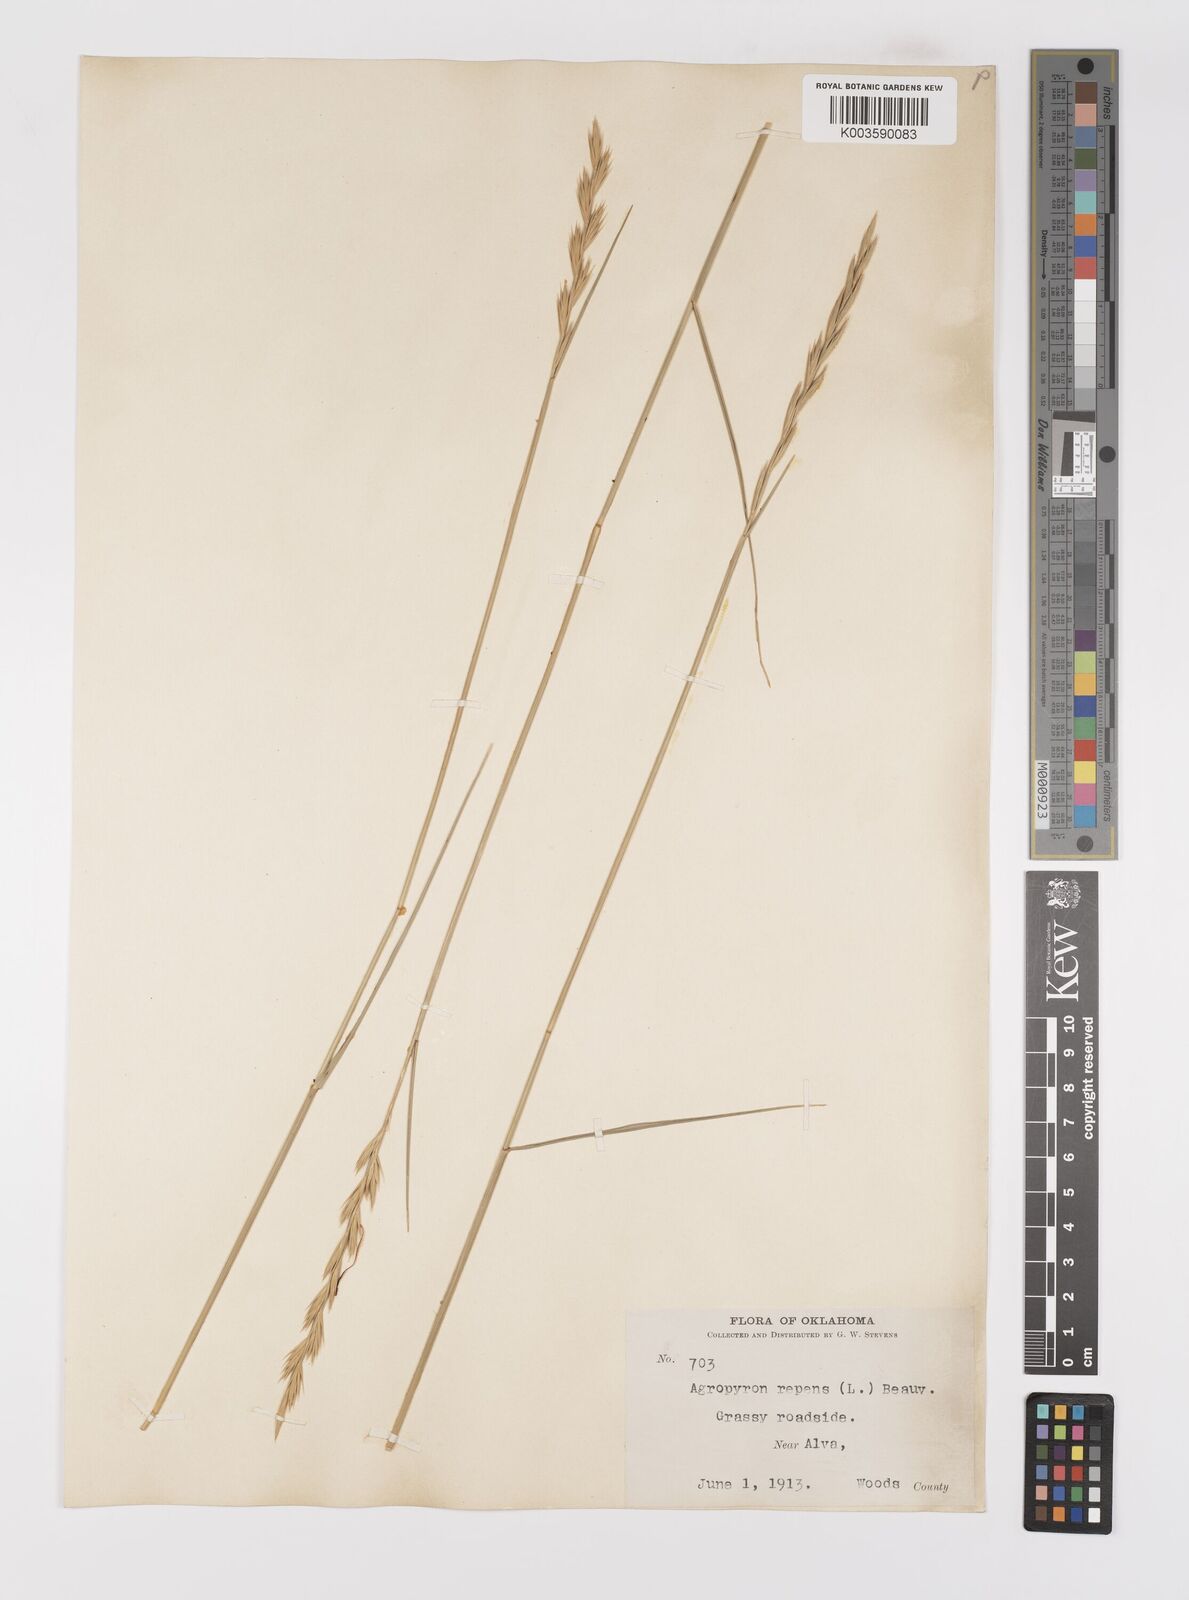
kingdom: Plantae
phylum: Tracheophyta
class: Liliopsida
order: Poales
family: Poaceae
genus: Elymus
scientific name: Elymus repens
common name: Quackgrass
